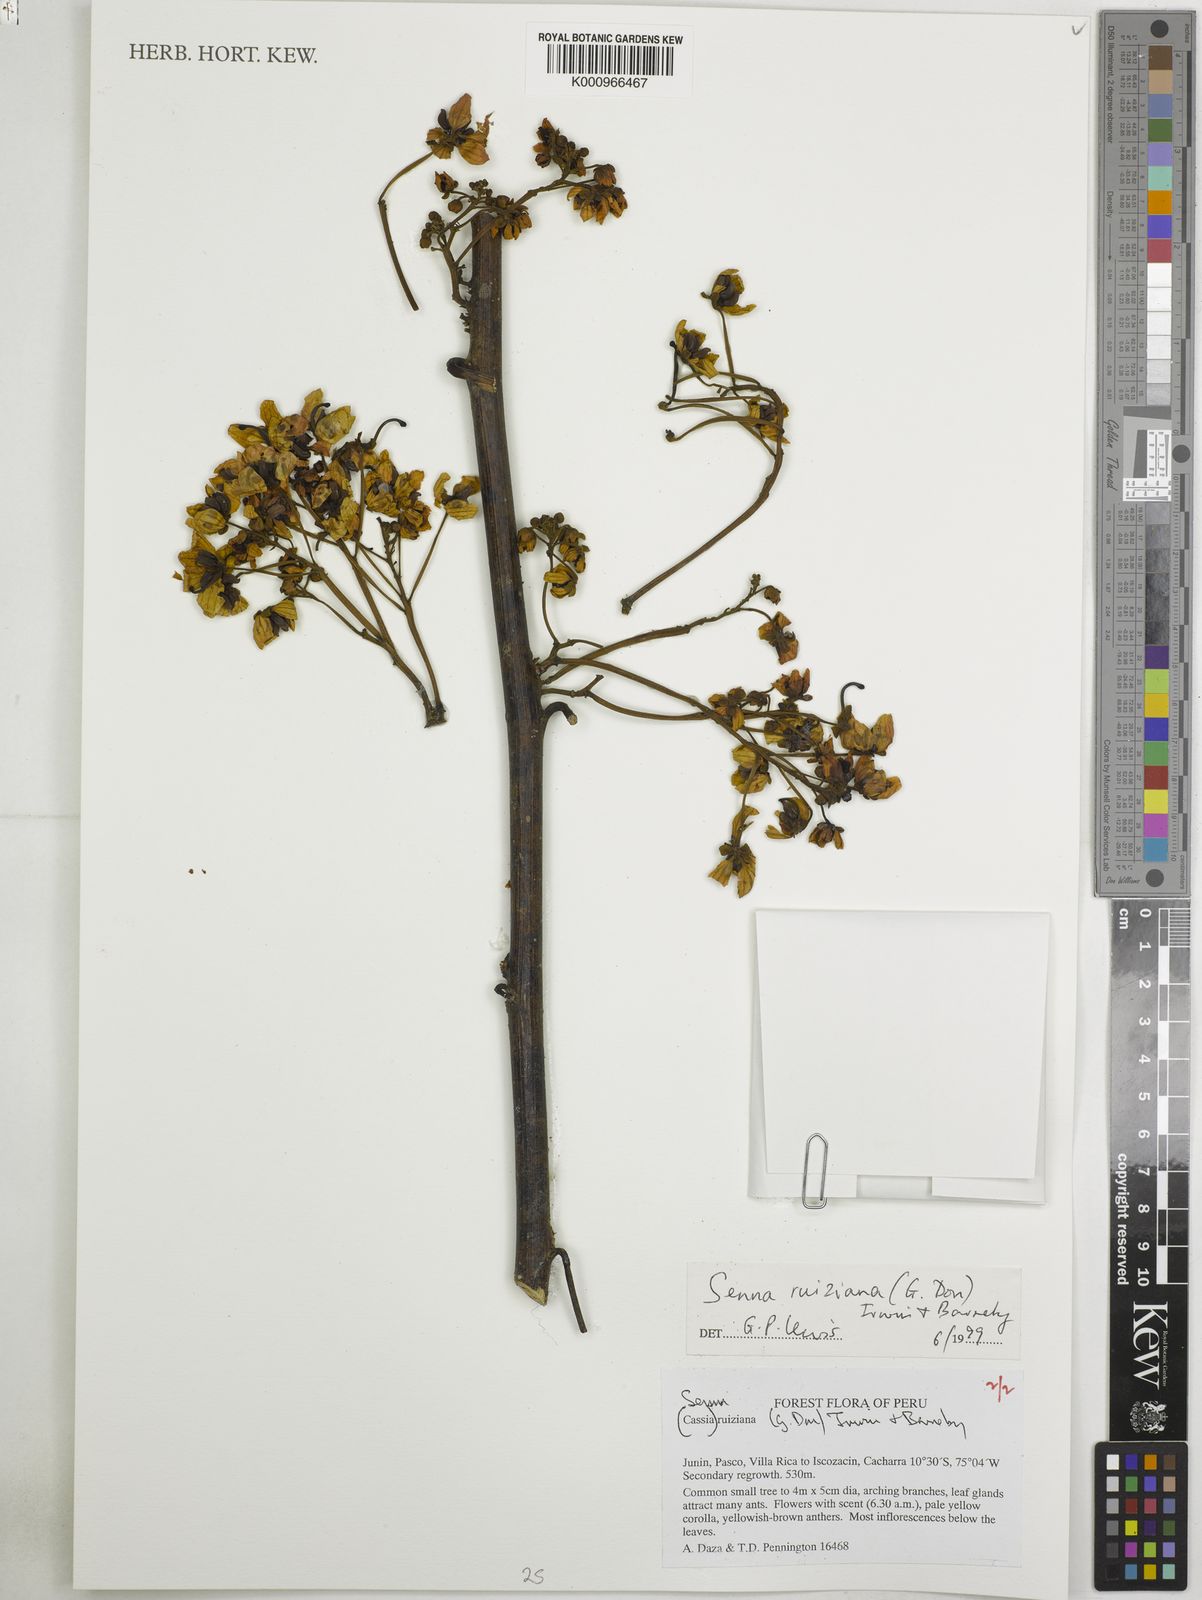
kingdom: Plantae
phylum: Tracheophyta
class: Magnoliopsida
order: Fabales
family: Fabaceae
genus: Senna
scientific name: Senna ruiziana
